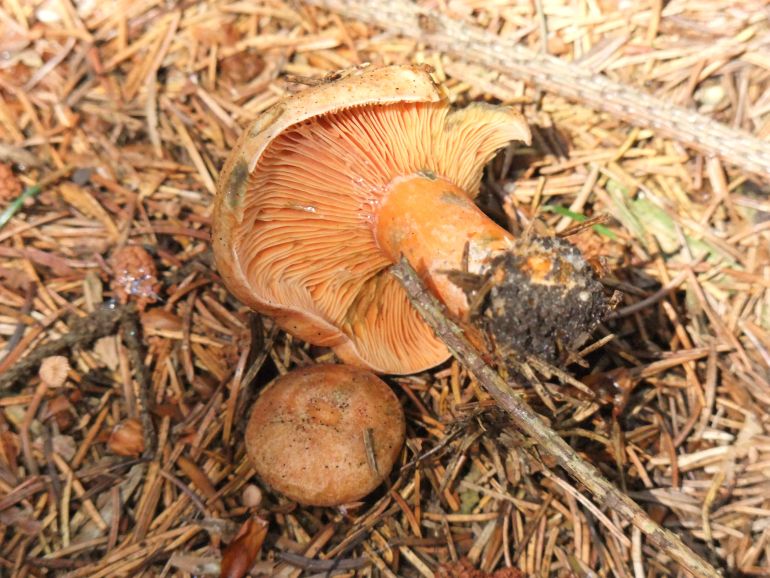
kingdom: Fungi
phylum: Basidiomycota
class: Agaricomycetes
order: Russulales
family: Russulaceae
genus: Lactarius
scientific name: Lactarius deterrimus
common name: gran-mælkehat
